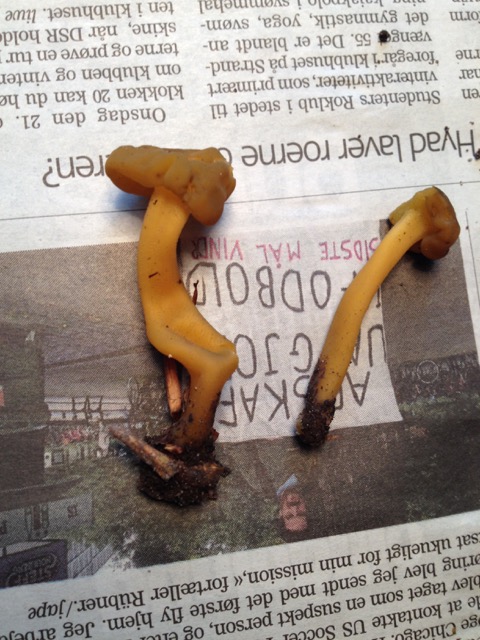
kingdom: Fungi
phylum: Ascomycota
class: Leotiomycetes
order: Leotiales
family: Leotiaceae
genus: Leotia
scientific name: Leotia lubrica
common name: ravsvamp
